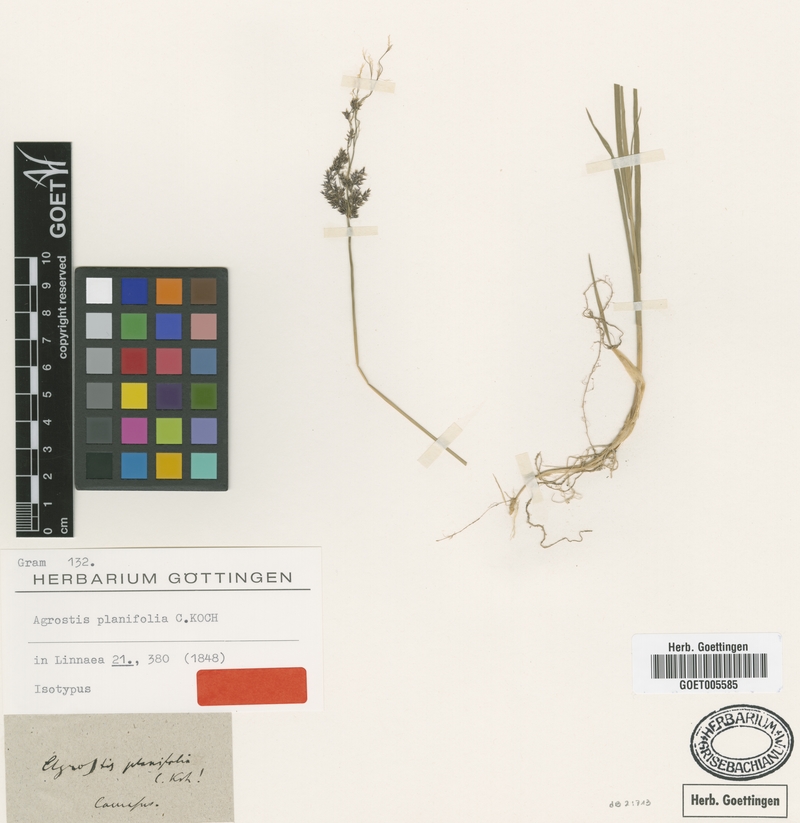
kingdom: Plantae
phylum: Tracheophyta
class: Liliopsida
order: Poales
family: Poaceae
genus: Agrostis
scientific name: Agrostis vinealis
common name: Brown bent
